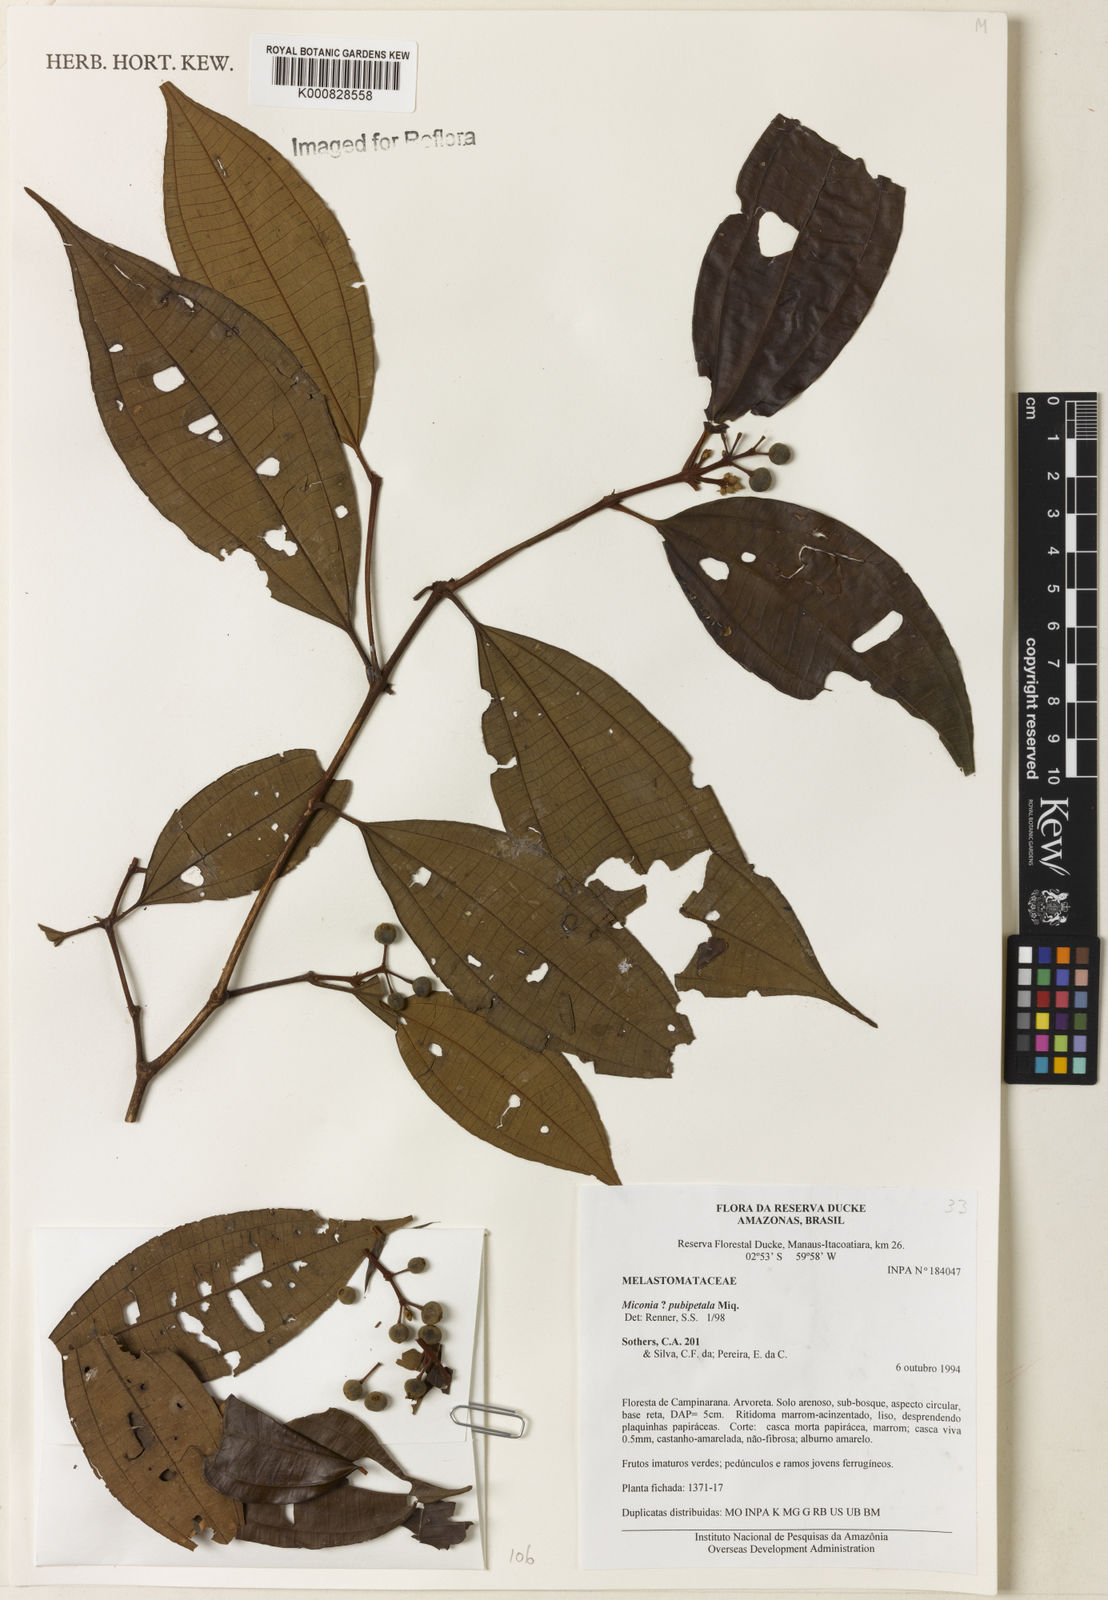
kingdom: Plantae
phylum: Tracheophyta
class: Magnoliopsida
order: Myrtales
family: Melastomataceae
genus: Miconia
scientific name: Miconia pubipetala
